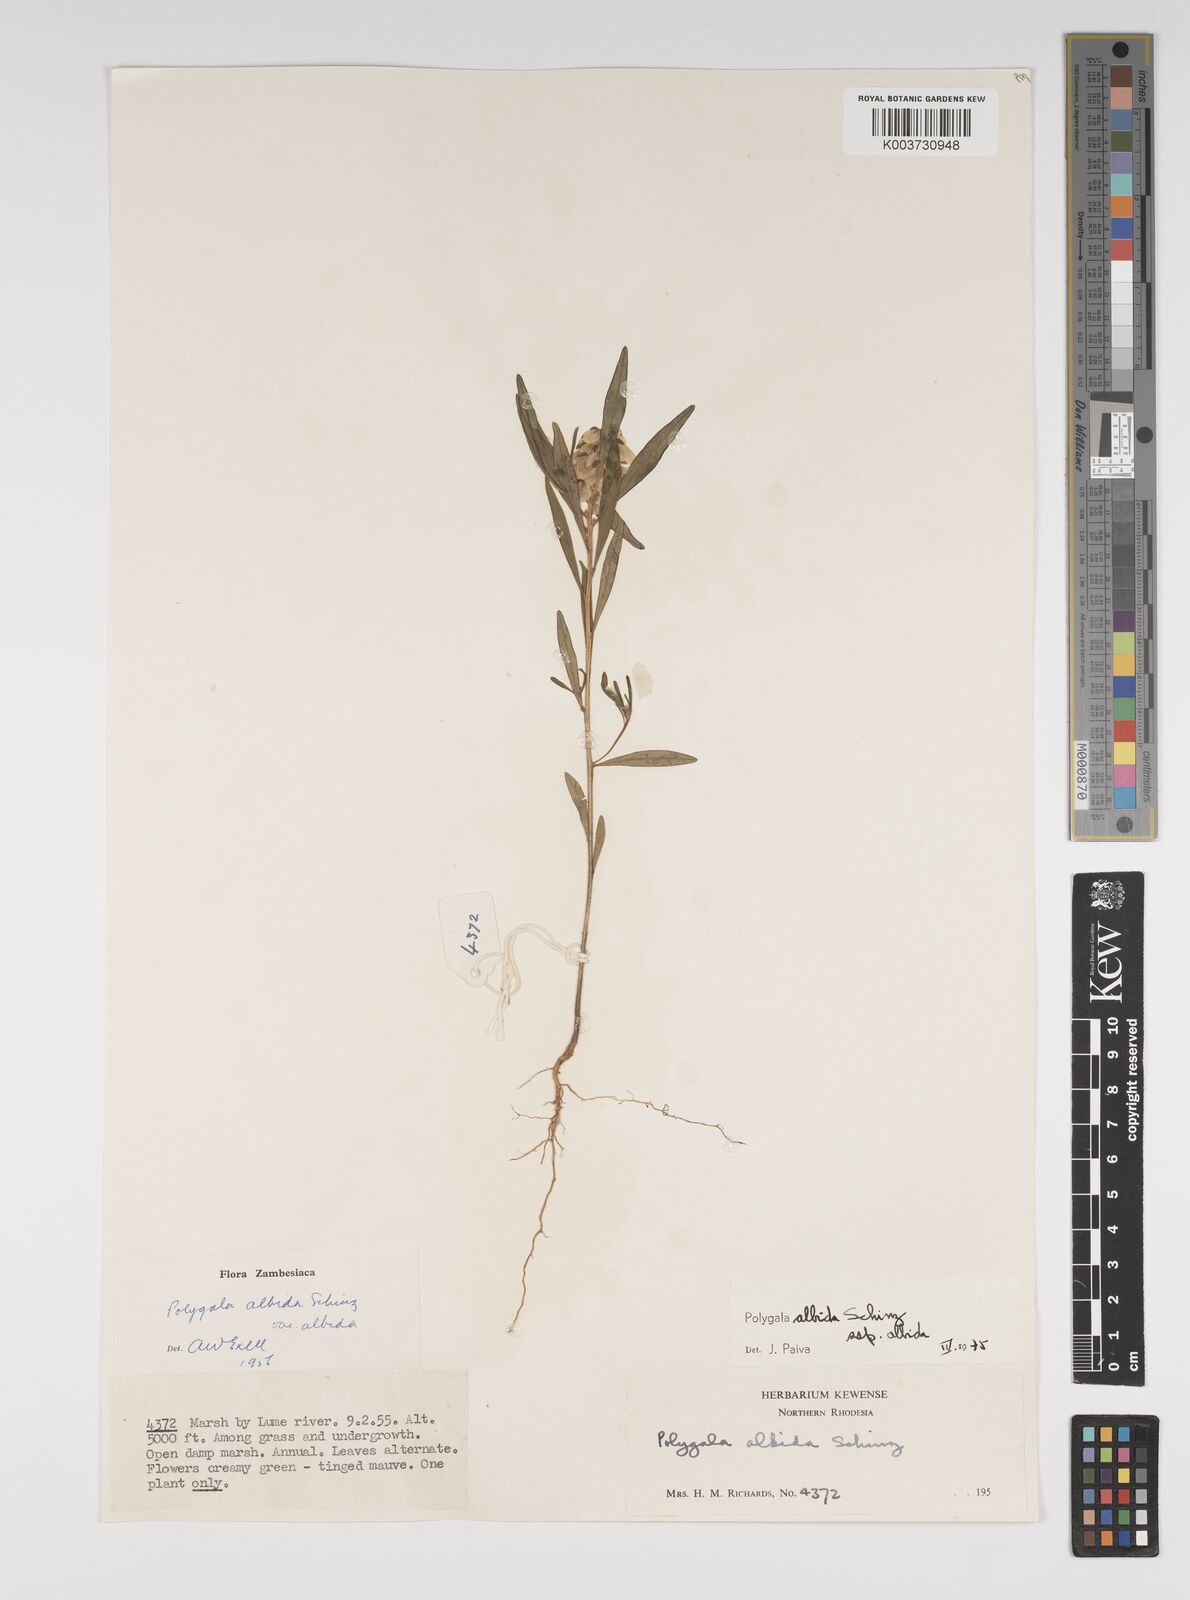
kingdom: Plantae
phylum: Tracheophyta
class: Magnoliopsida
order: Fabales
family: Polygalaceae
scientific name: Polygalaceae
